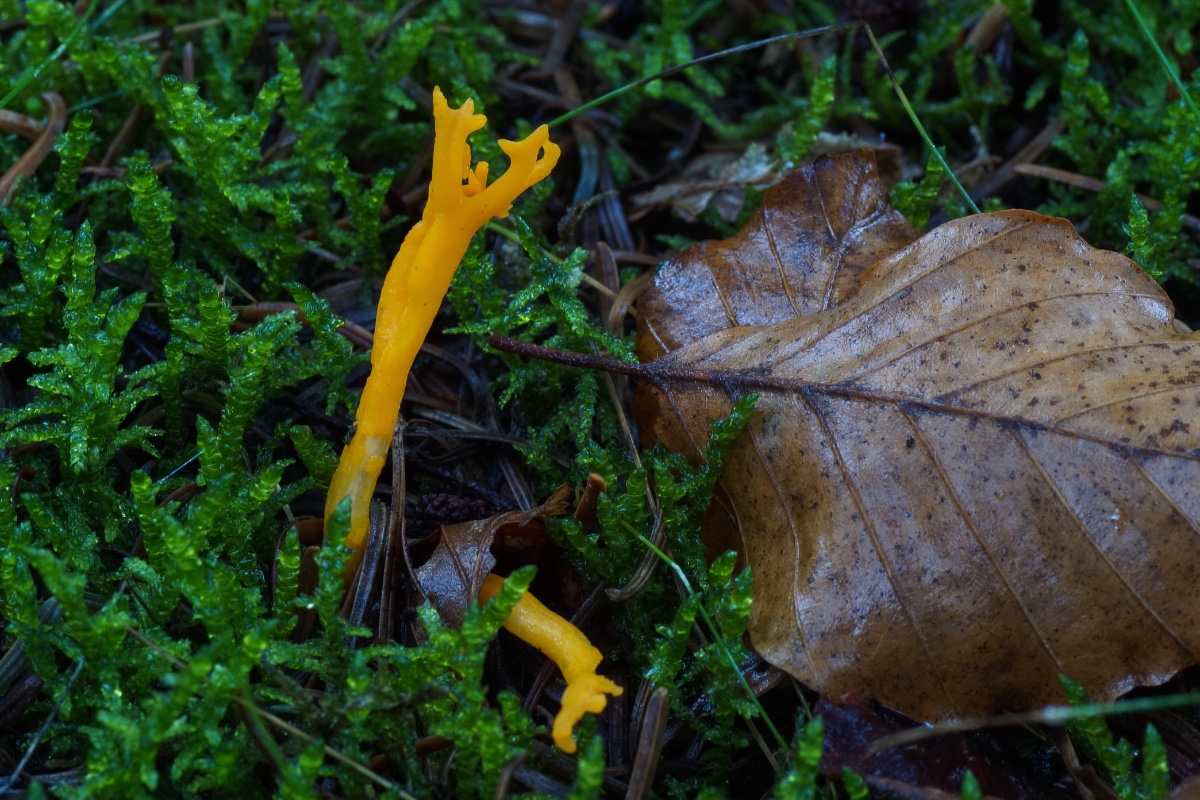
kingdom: Fungi
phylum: Basidiomycota
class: Dacrymycetes
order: Dacrymycetales
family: Dacrymycetaceae
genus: Calocera
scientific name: Calocera viscosa
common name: almindelig guldgaffel
